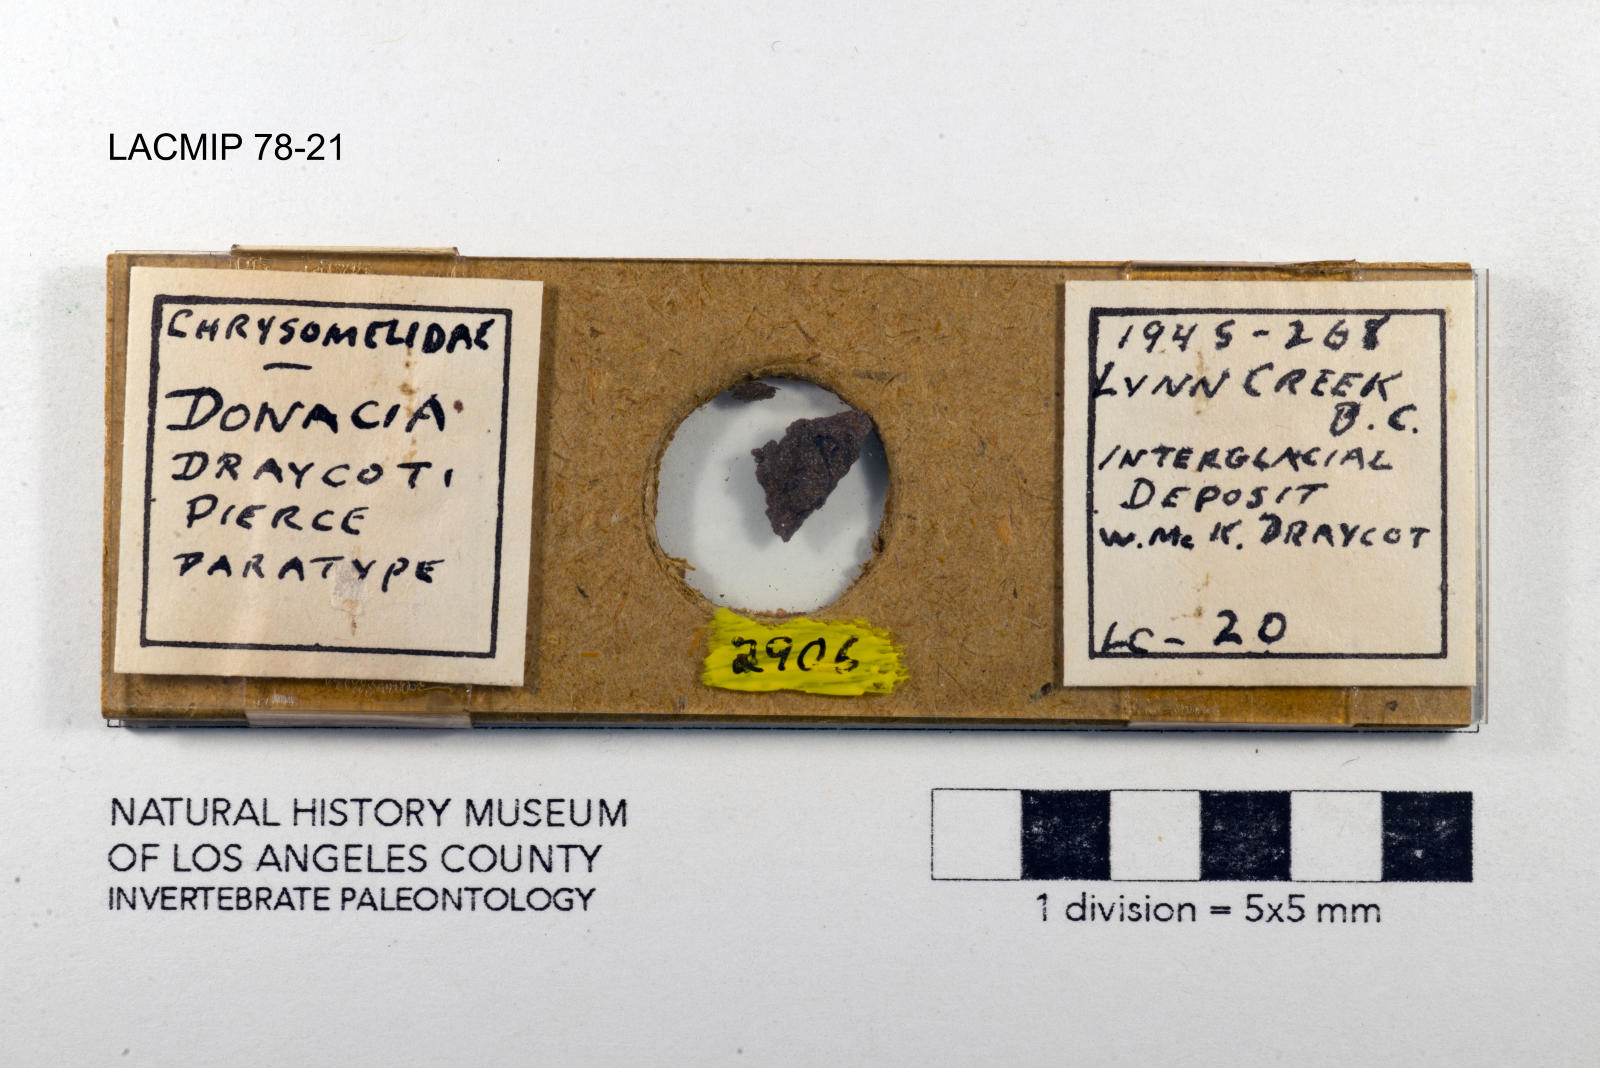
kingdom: Animalia
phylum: Arthropoda
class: Insecta
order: Coleoptera
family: Chrysomelidae
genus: Donacia
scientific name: Donacia draycoti
